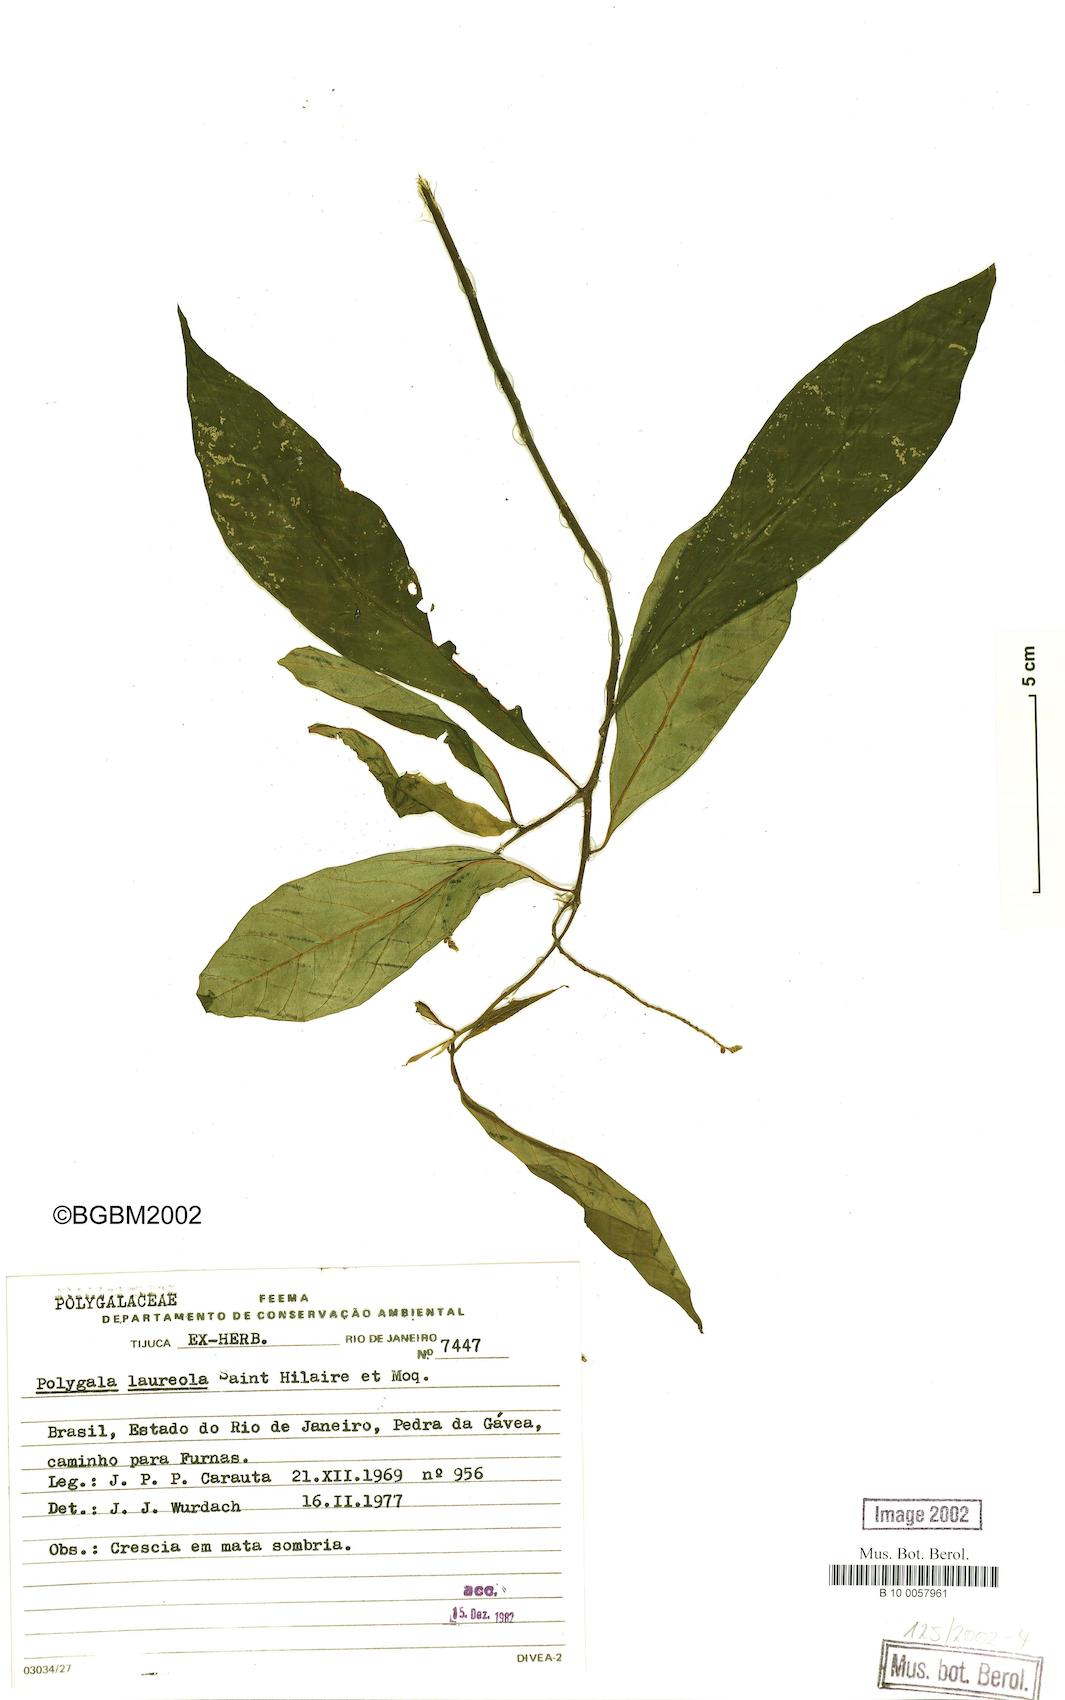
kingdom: Plantae
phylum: Tracheophyta
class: Magnoliopsida
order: Fabales
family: Polygalaceae
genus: Caamembeca
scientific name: Caamembeca salicifolia
